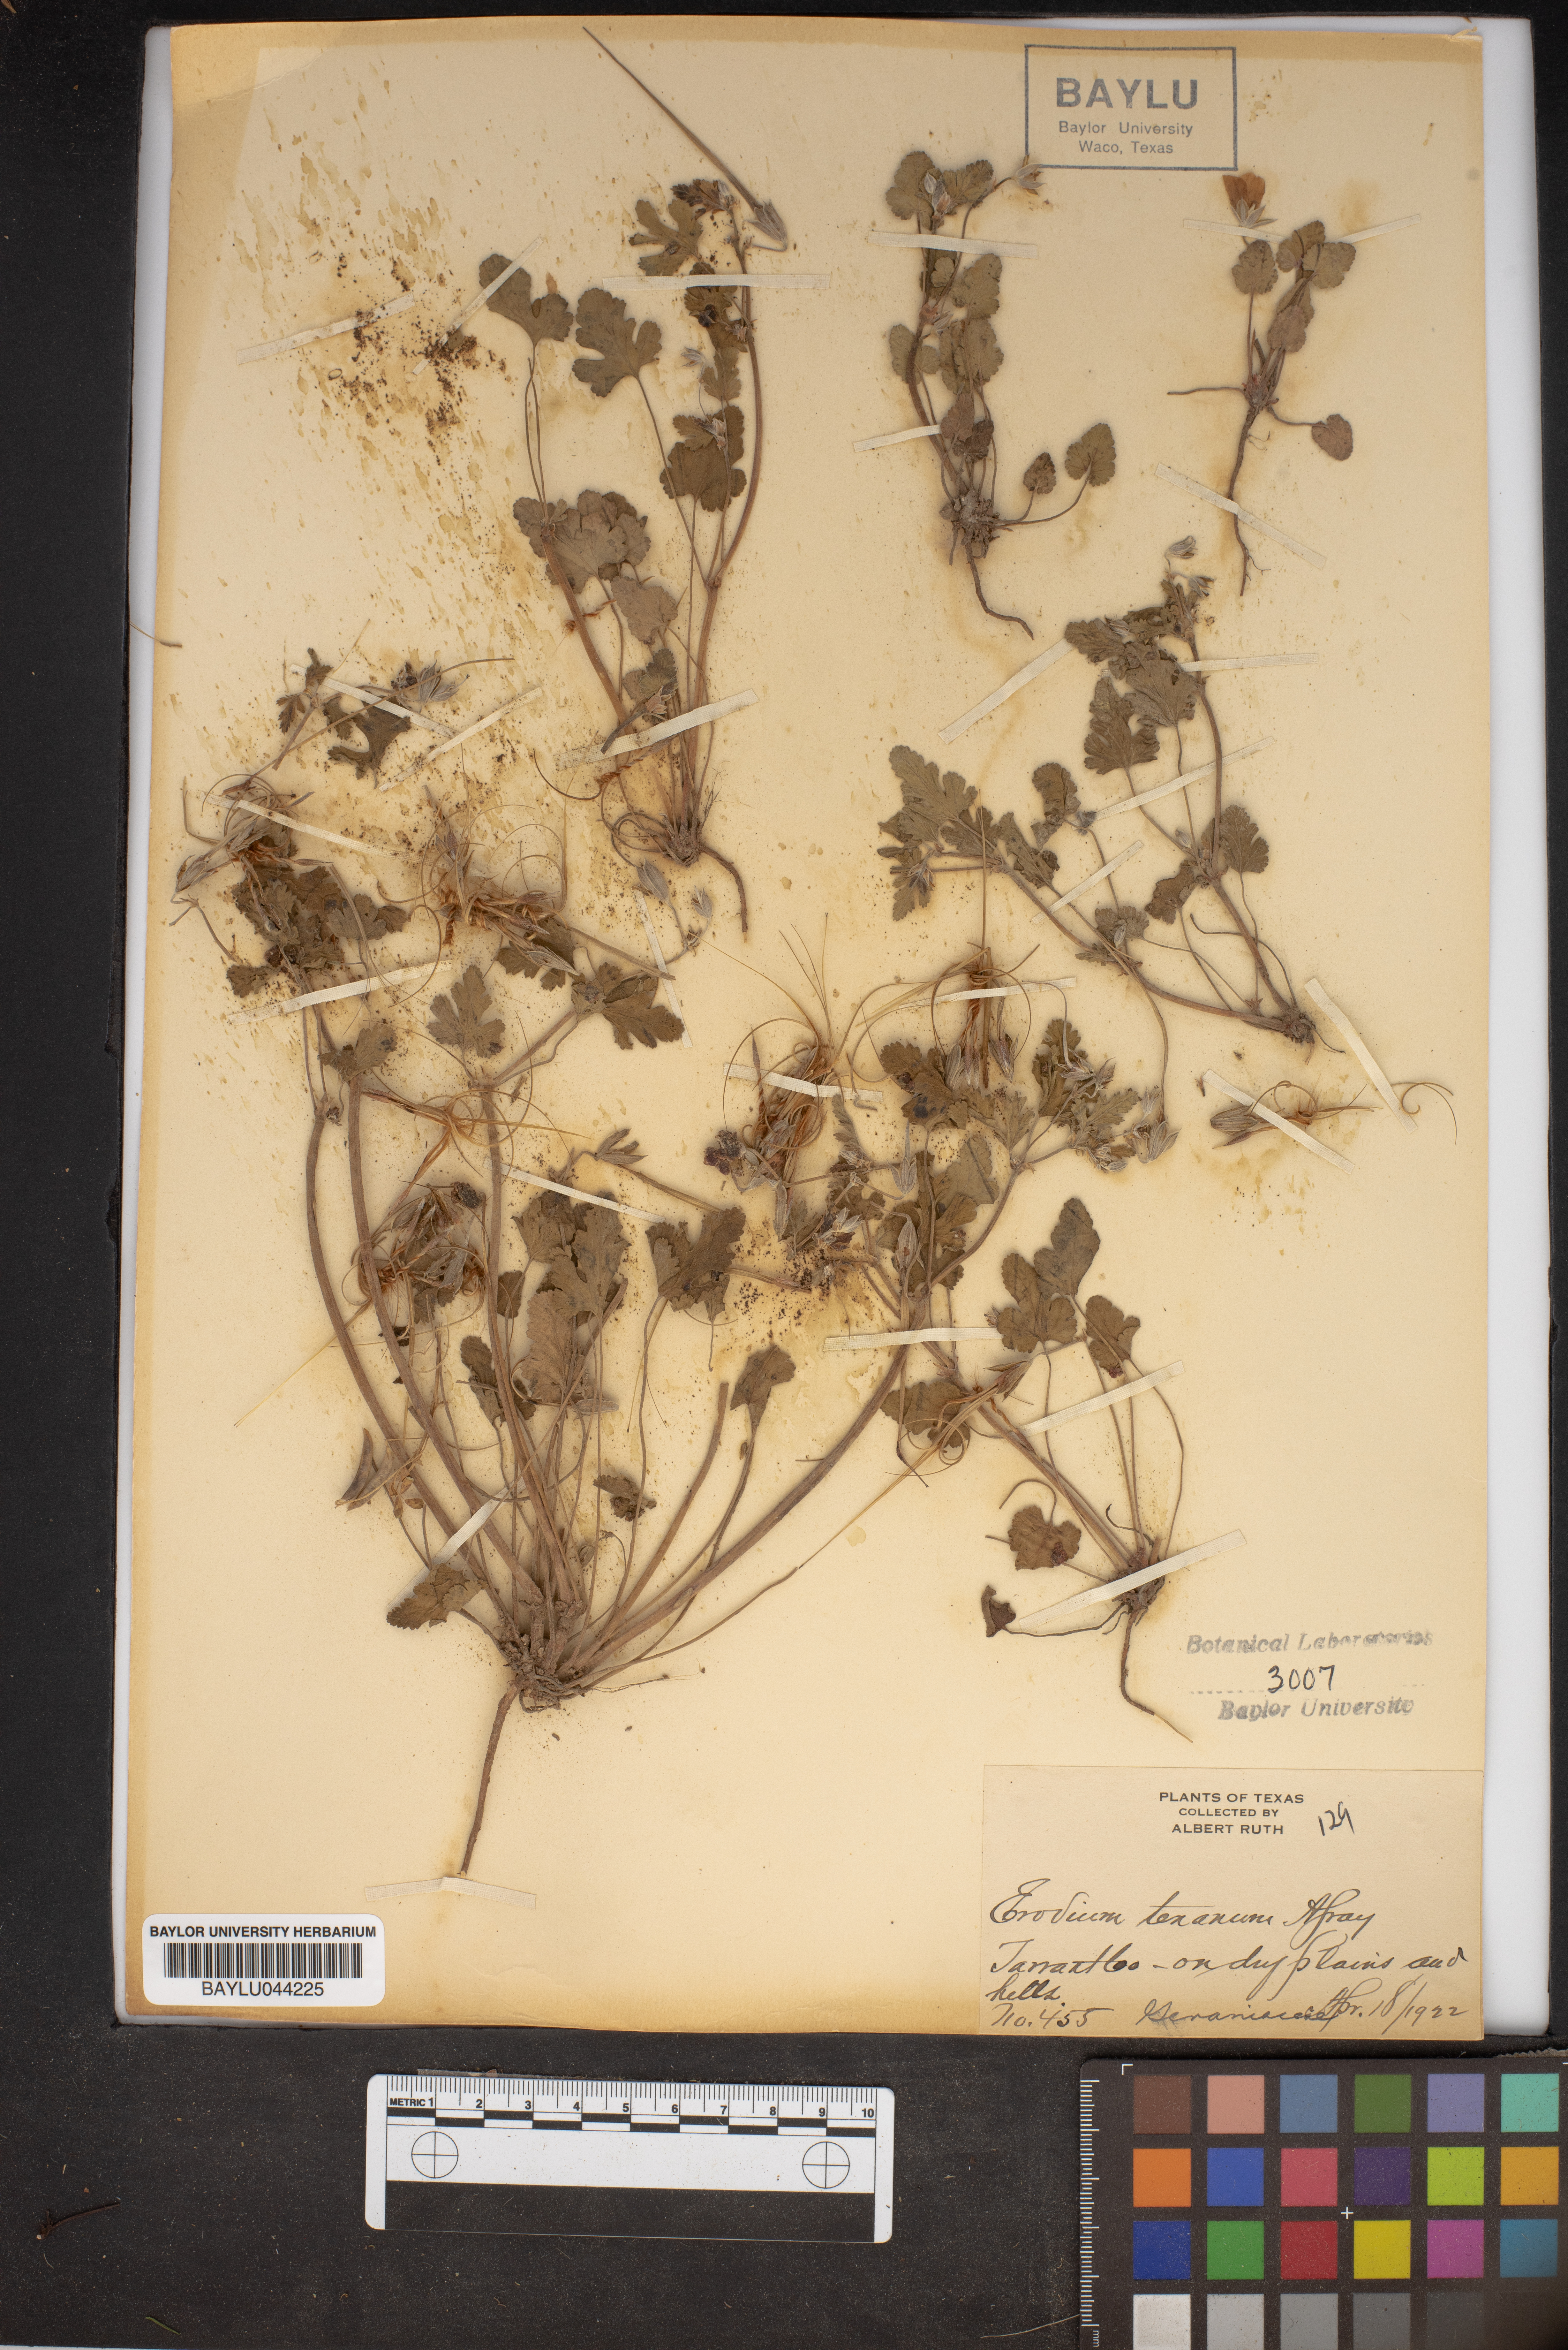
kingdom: Plantae
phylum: Tracheophyta
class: Magnoliopsida
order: Geraniales
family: Geraniaceae
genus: Erodium
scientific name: Erodium texanum
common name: Texas stork's-bill
